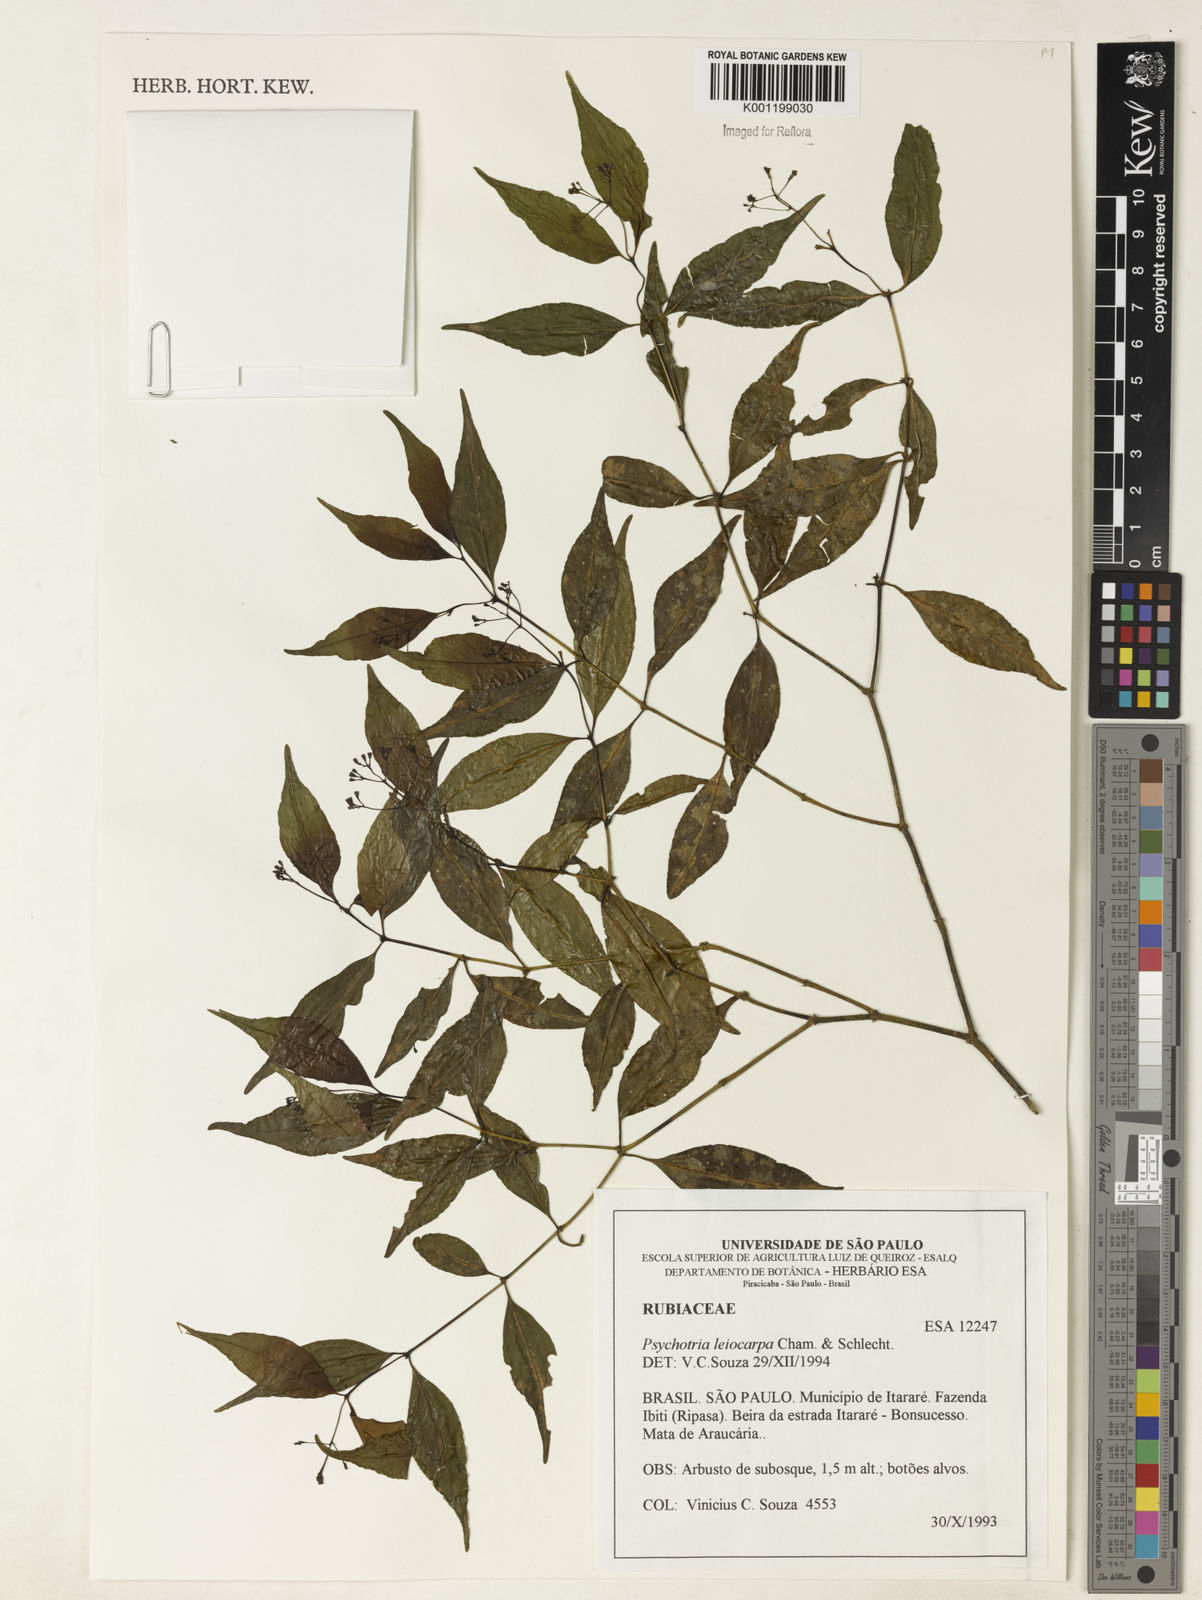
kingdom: Plantae
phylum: Tracheophyta
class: Magnoliopsida
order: Gentianales
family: Rubiaceae
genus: Psychotria
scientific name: Psychotria leiocarpa
